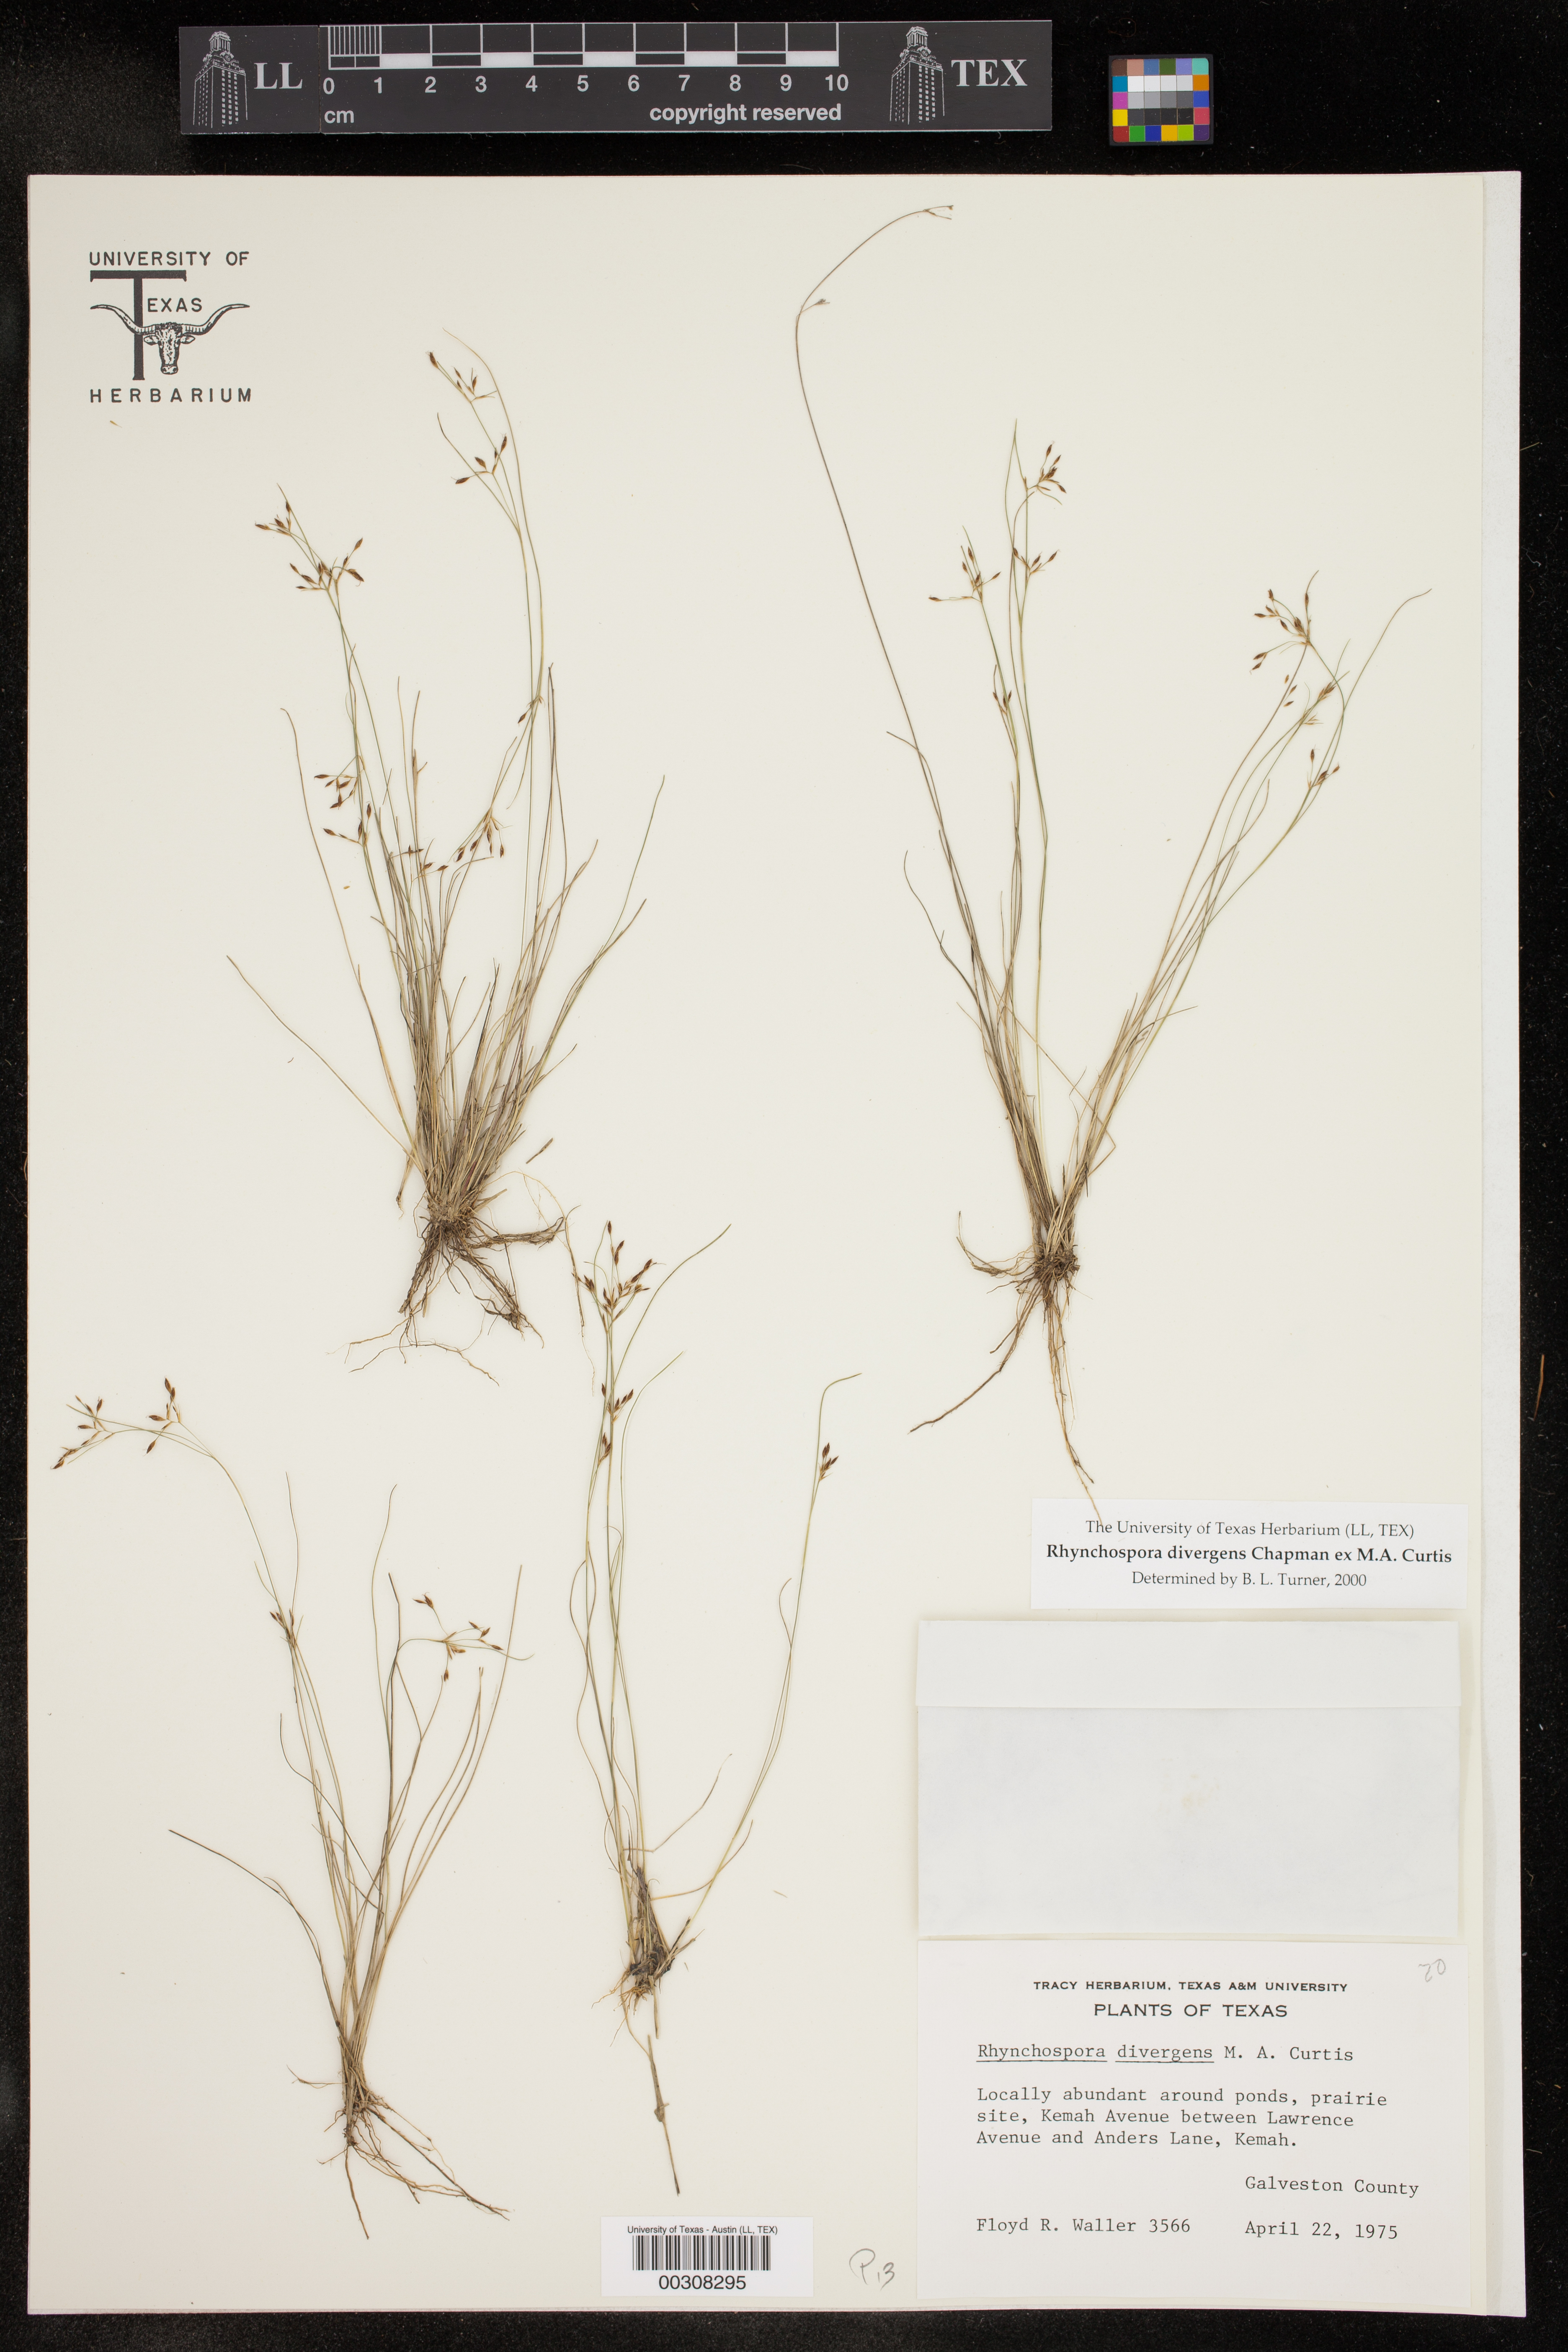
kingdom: Plantae
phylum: Tracheophyta
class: Liliopsida
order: Poales
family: Cyperaceae
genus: Rhynchospora
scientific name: Rhynchospora divergens
